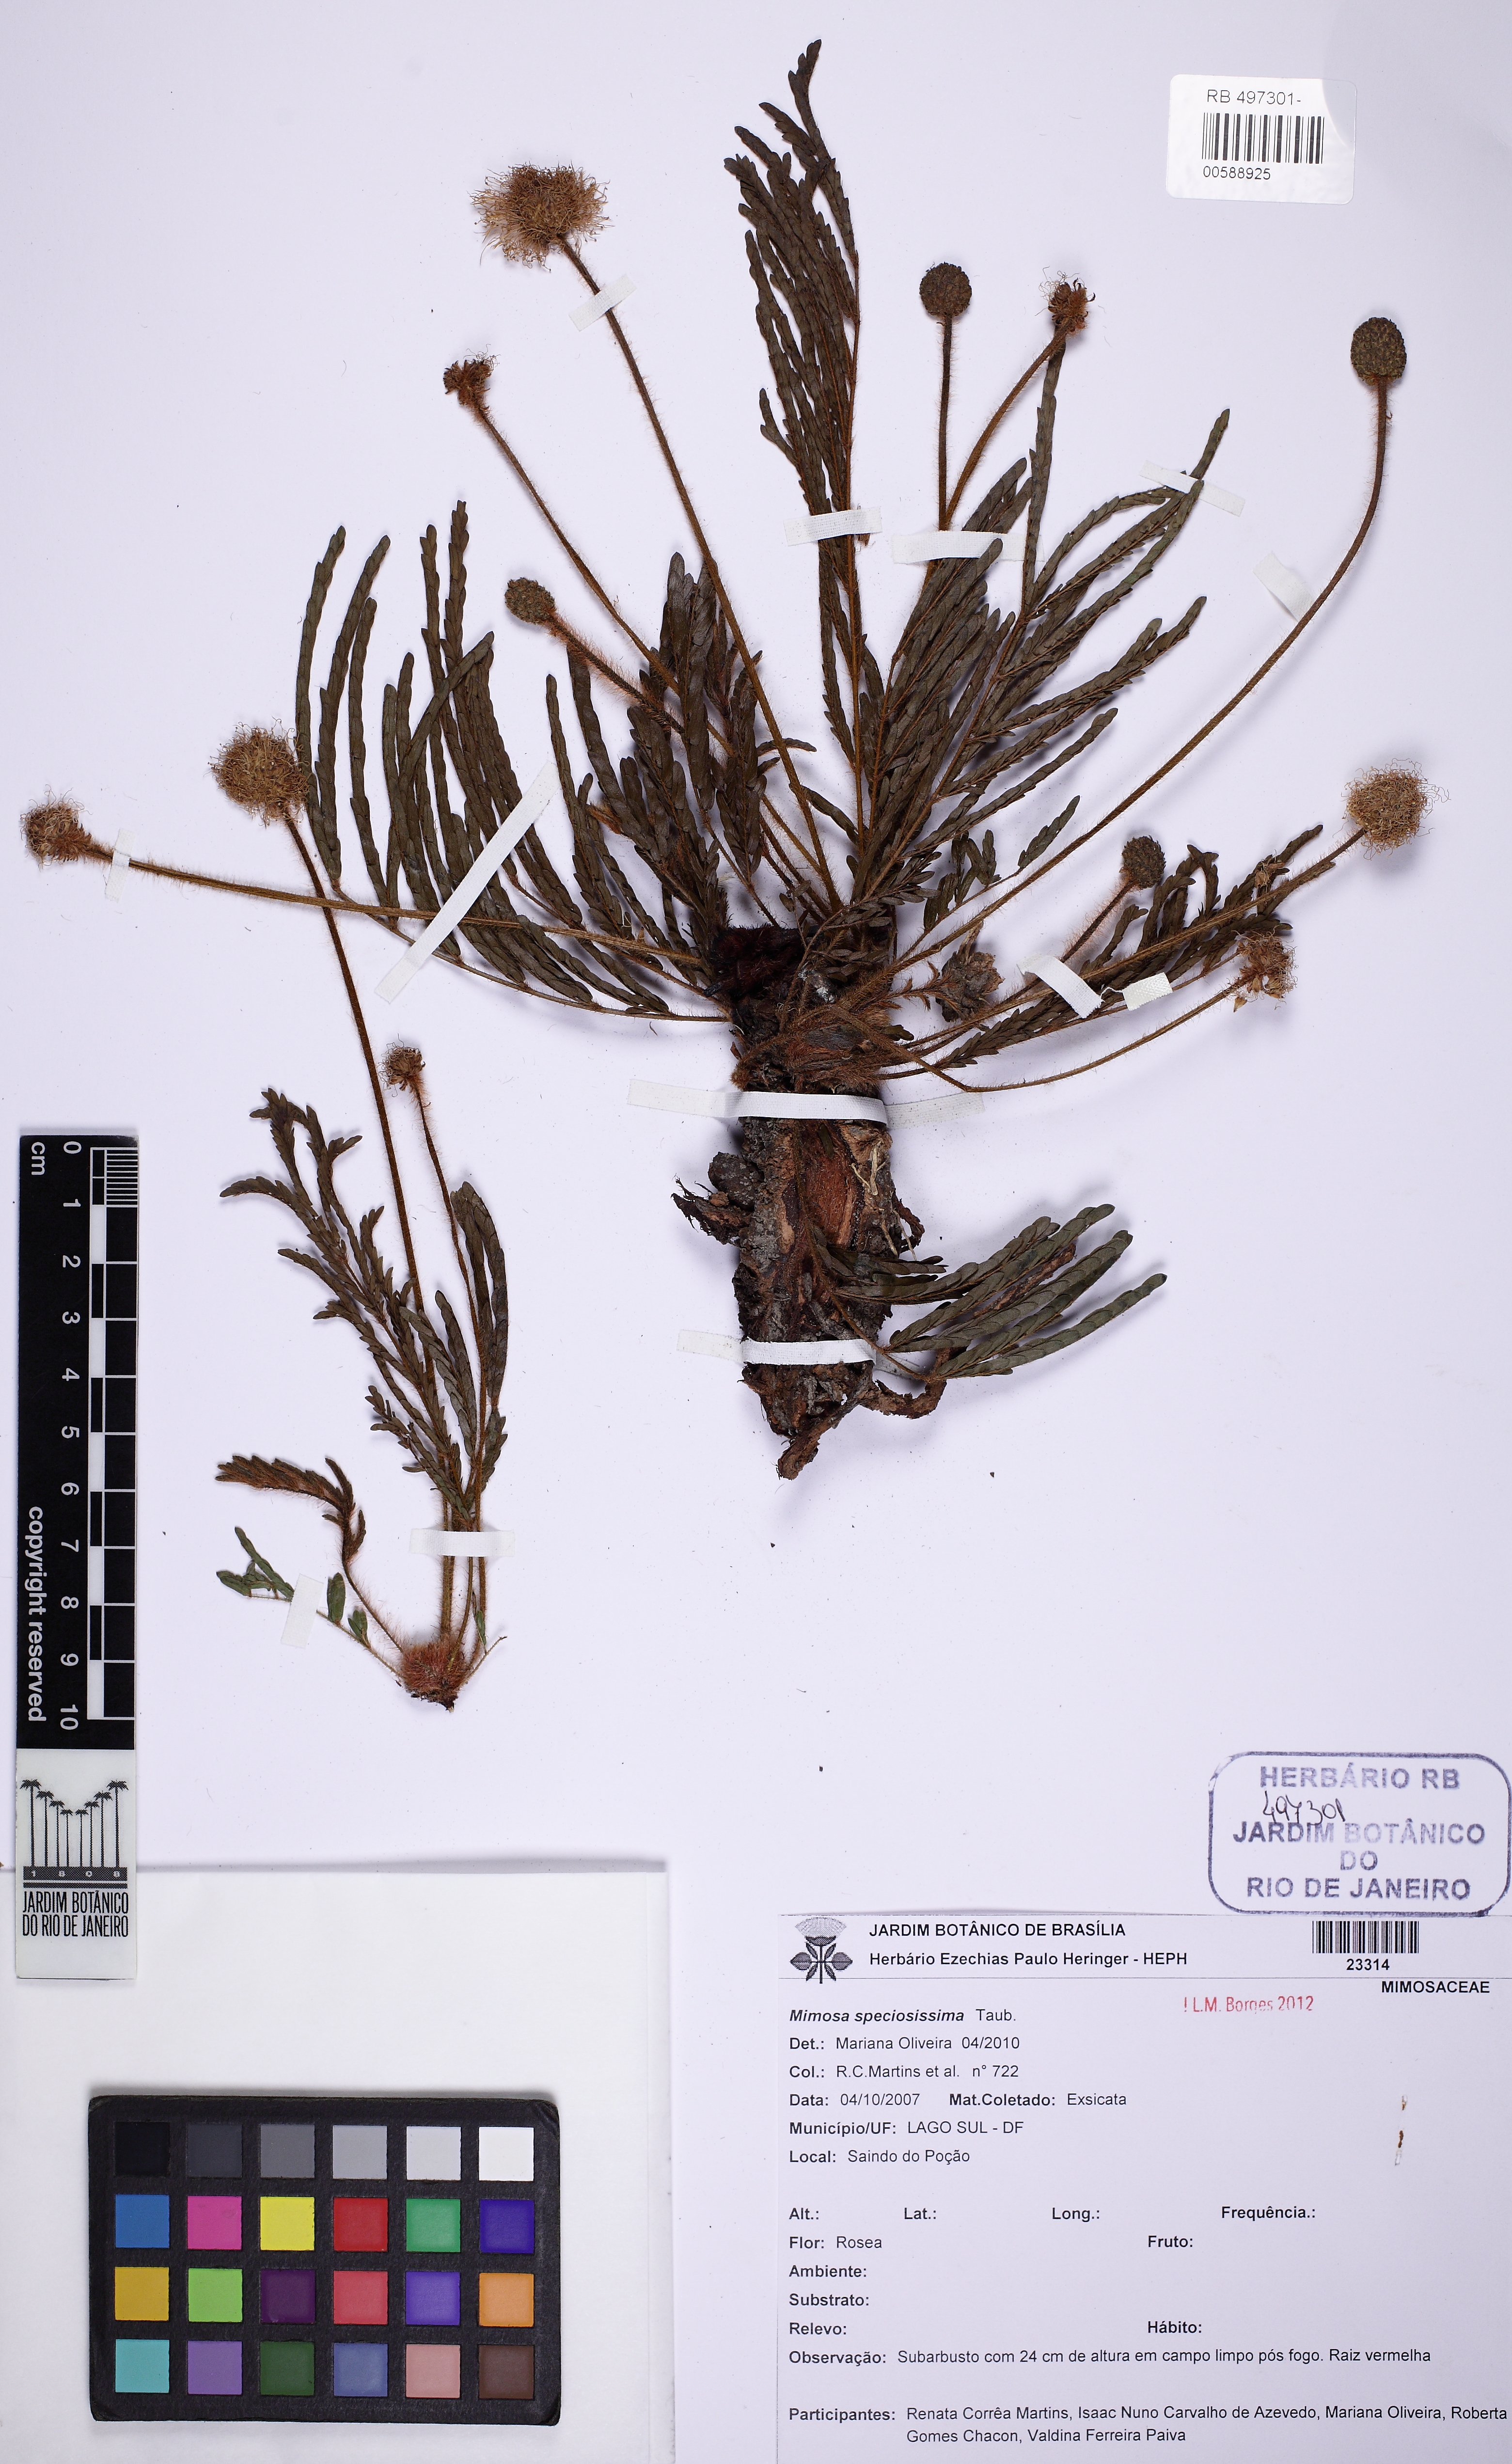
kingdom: Plantae
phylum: Tracheophyta
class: Magnoliopsida
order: Fabales
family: Fabaceae
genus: Mimosa
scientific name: Mimosa speciosissima
